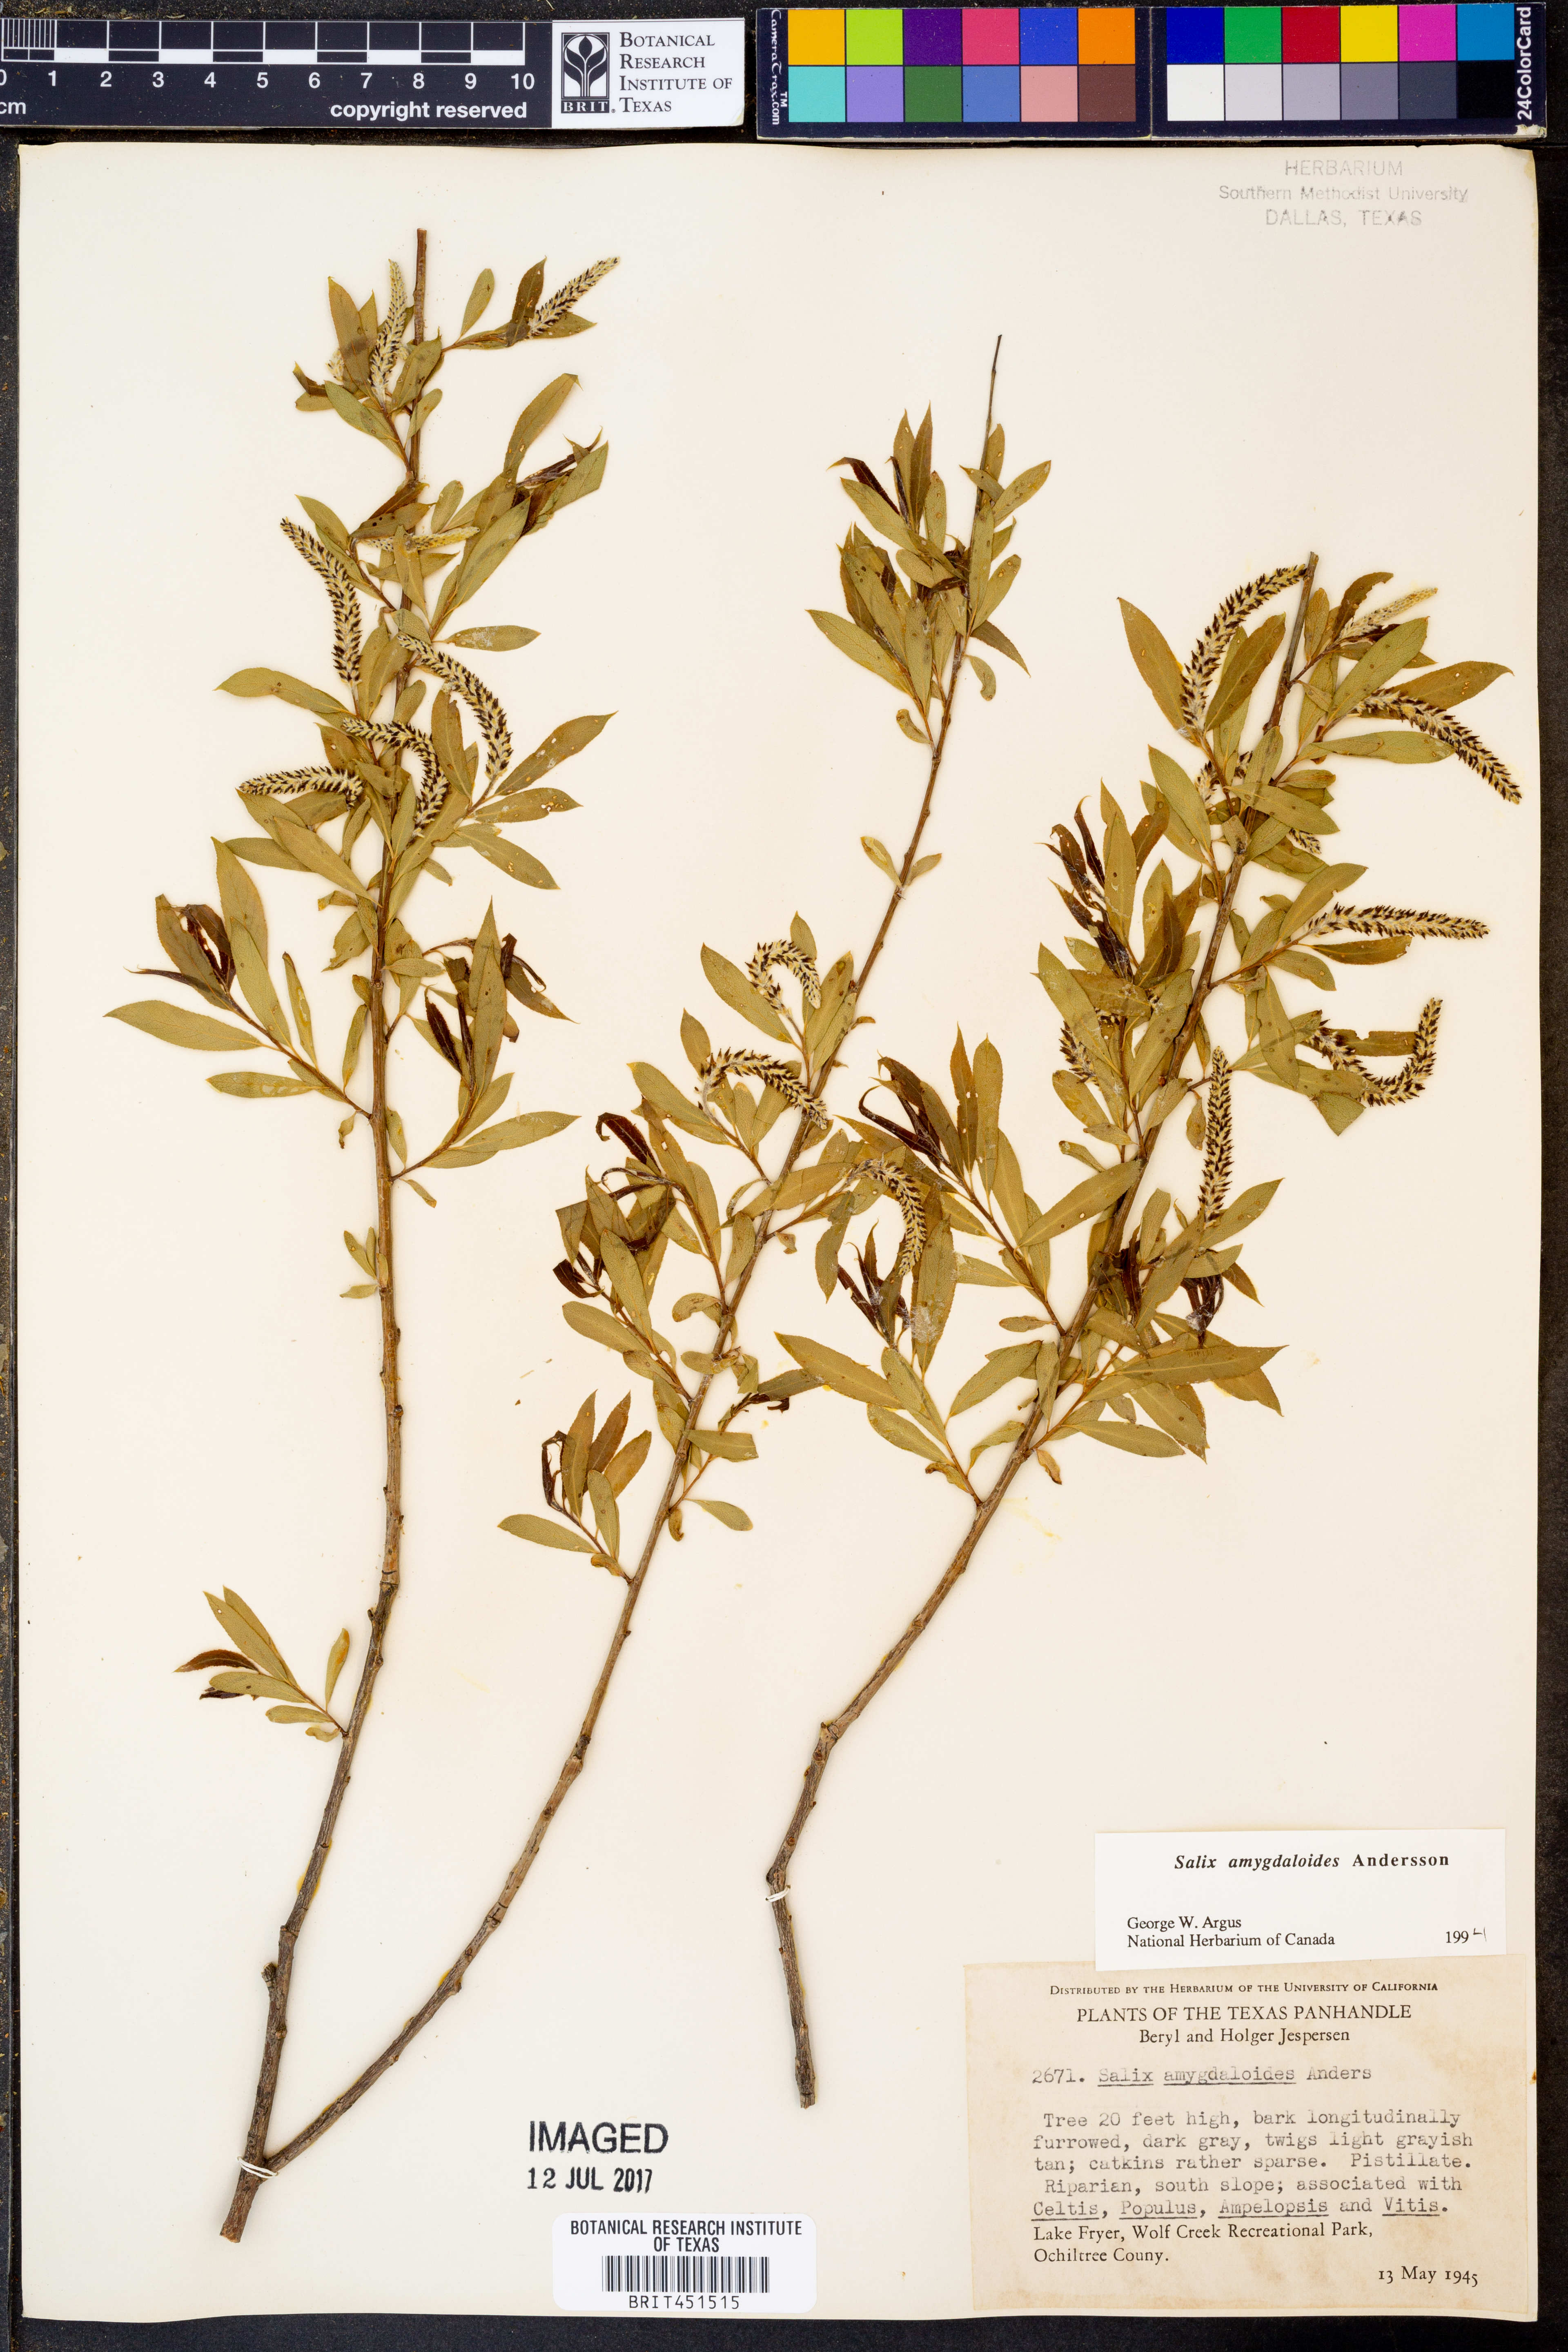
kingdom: Plantae
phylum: Tracheophyta
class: Magnoliopsida
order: Malpighiales
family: Salicaceae
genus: Salix
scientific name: Salix amygdaloides
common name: Peach leaf willow
